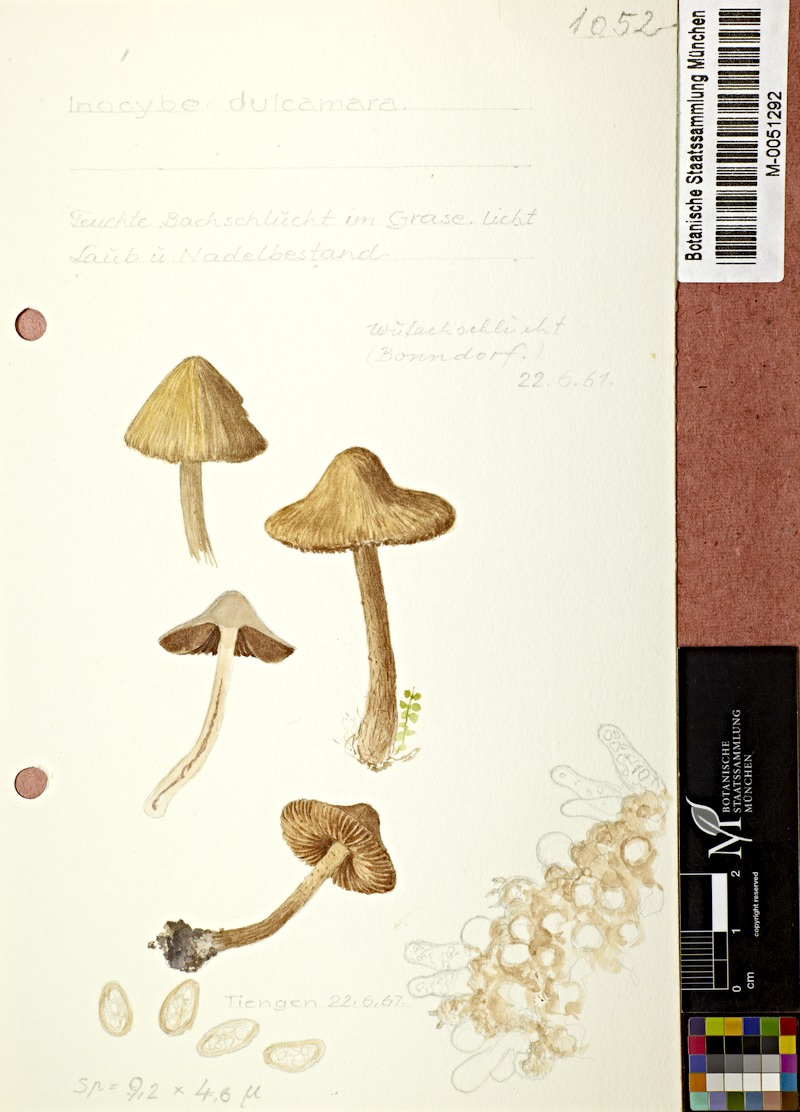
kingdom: Fungi
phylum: Basidiomycota
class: Agaricomycetes
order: Agaricales
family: Inocybaceae
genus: Inocybe
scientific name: Inocybe
